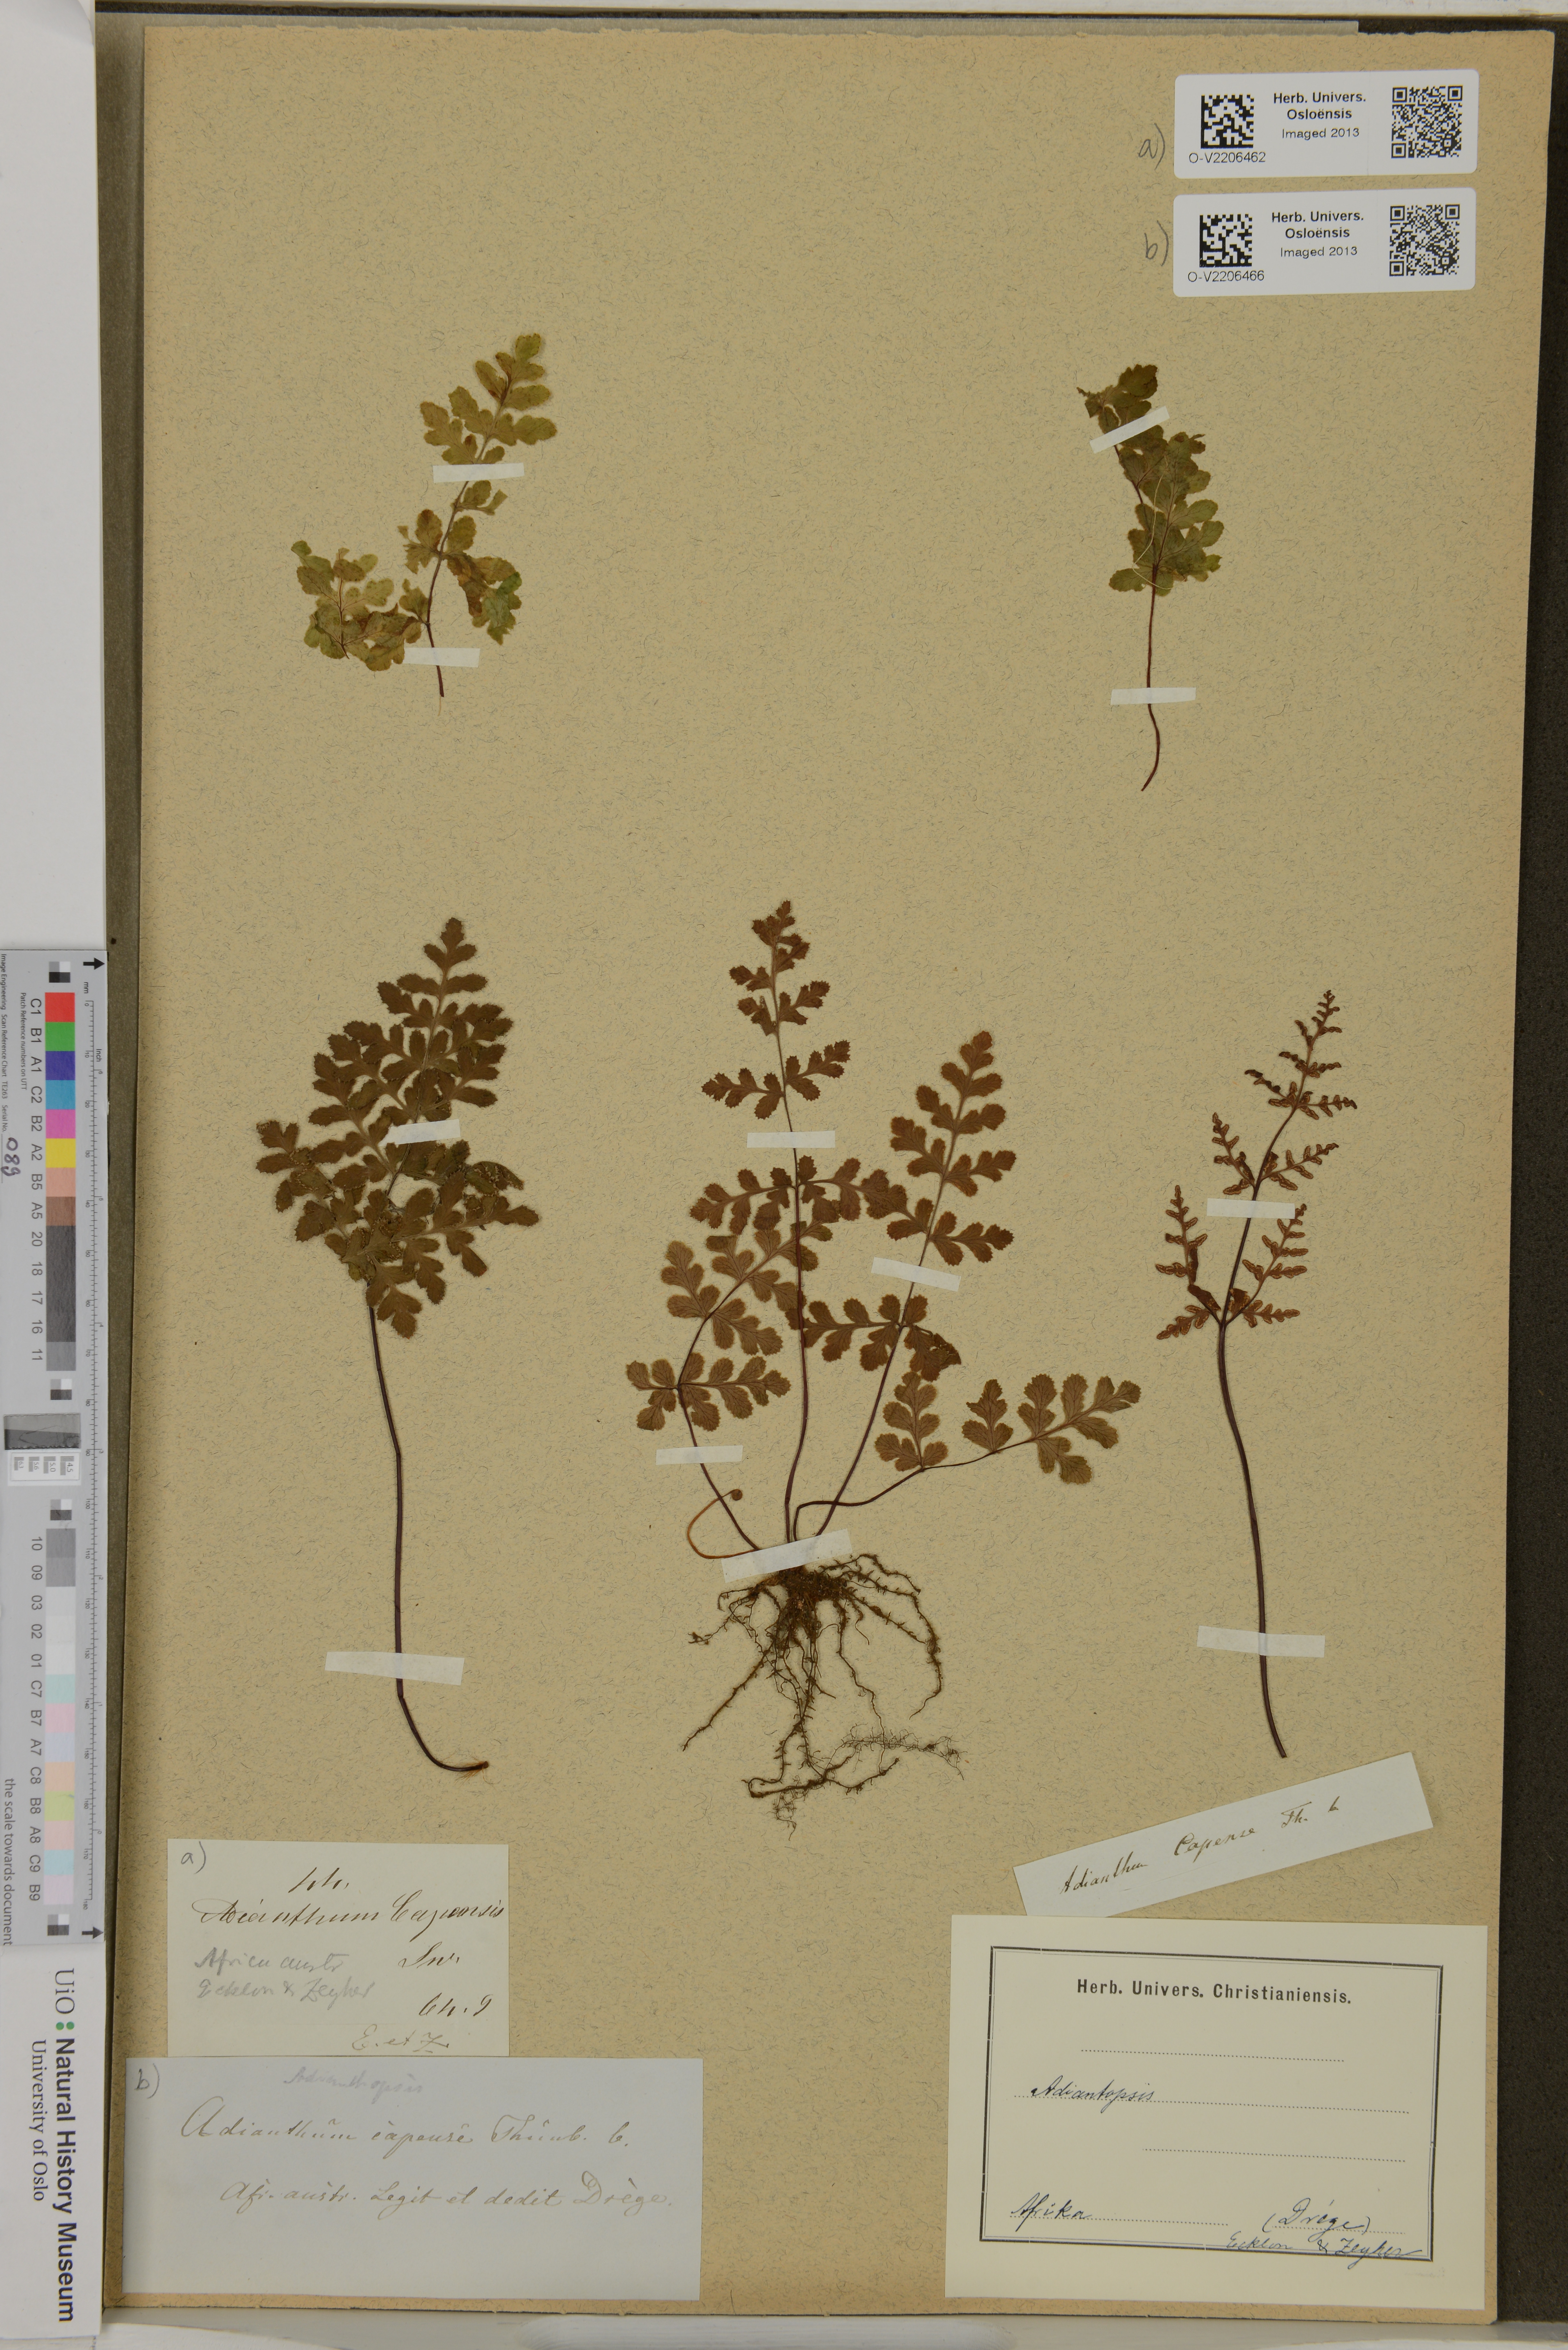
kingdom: Plantae
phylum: Tracheophyta
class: Polypodiopsida
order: Polypodiales
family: Pteridaceae
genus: Cheilanthes
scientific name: Cheilanthes capensis
